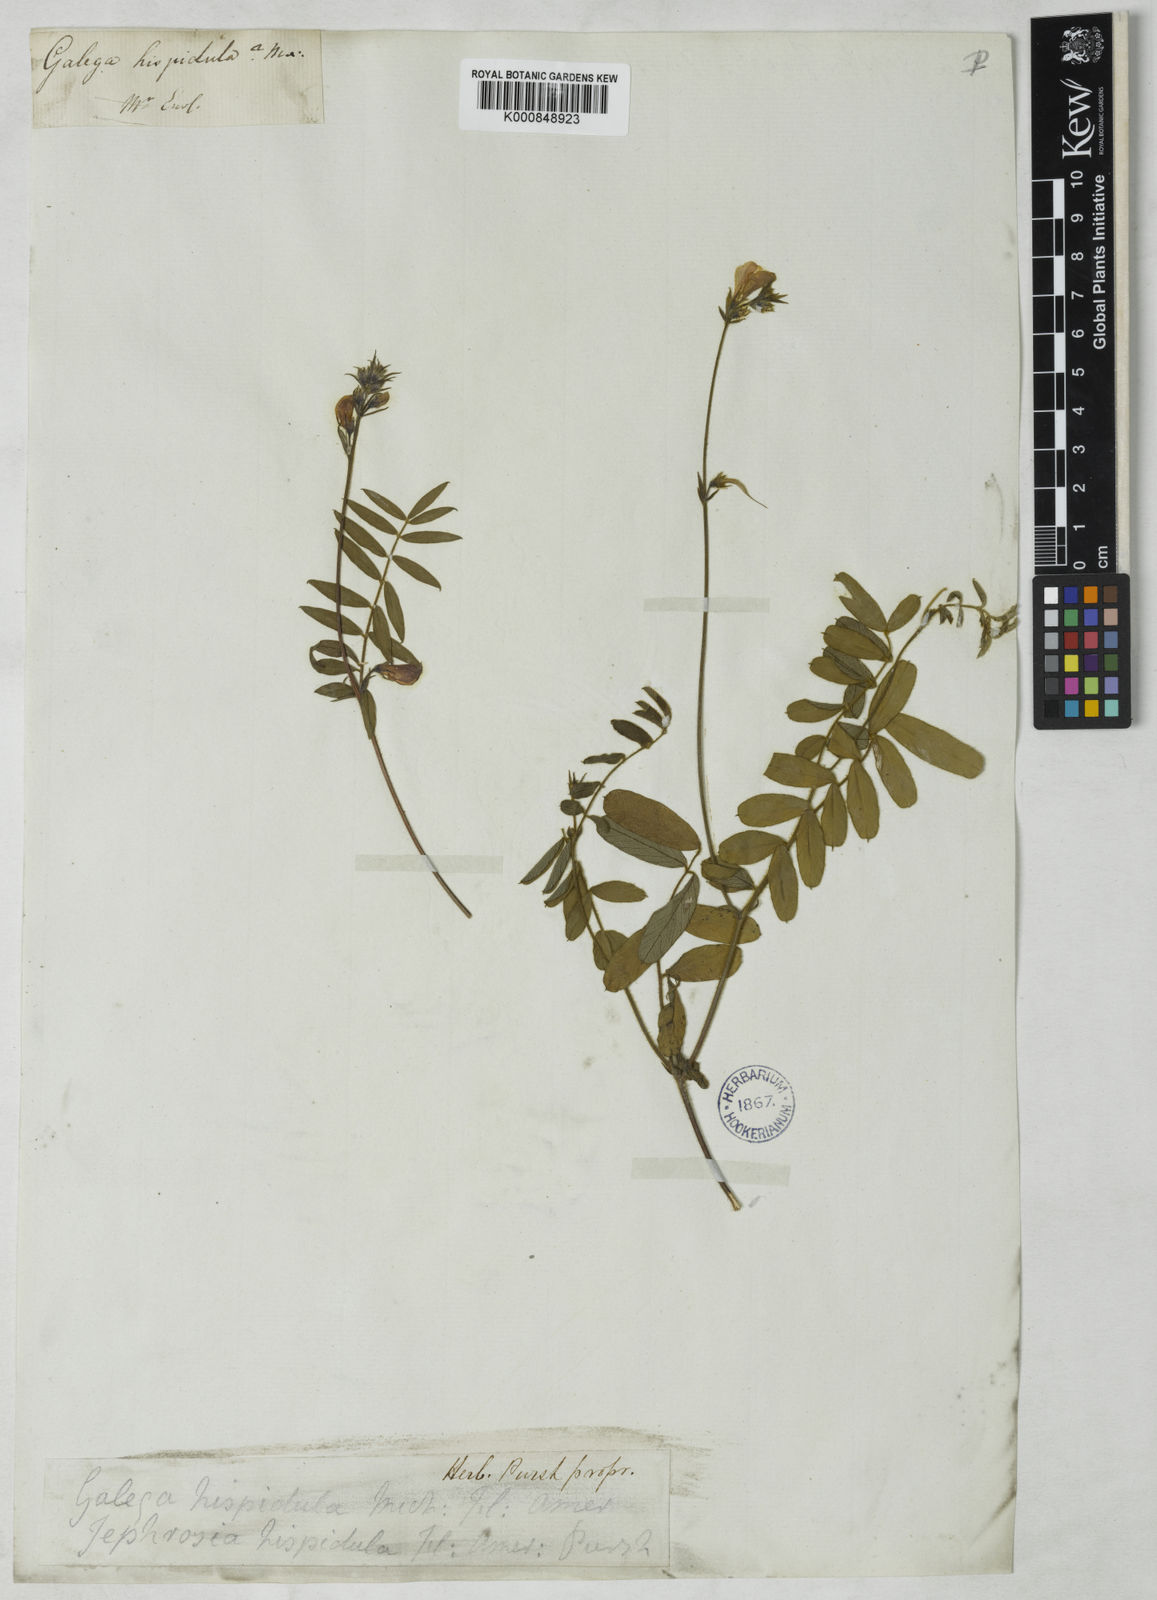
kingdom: Plantae
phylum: Tracheophyta
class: Magnoliopsida
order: Fabales
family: Fabaceae
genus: Tephrosia
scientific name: Tephrosia hispidula
